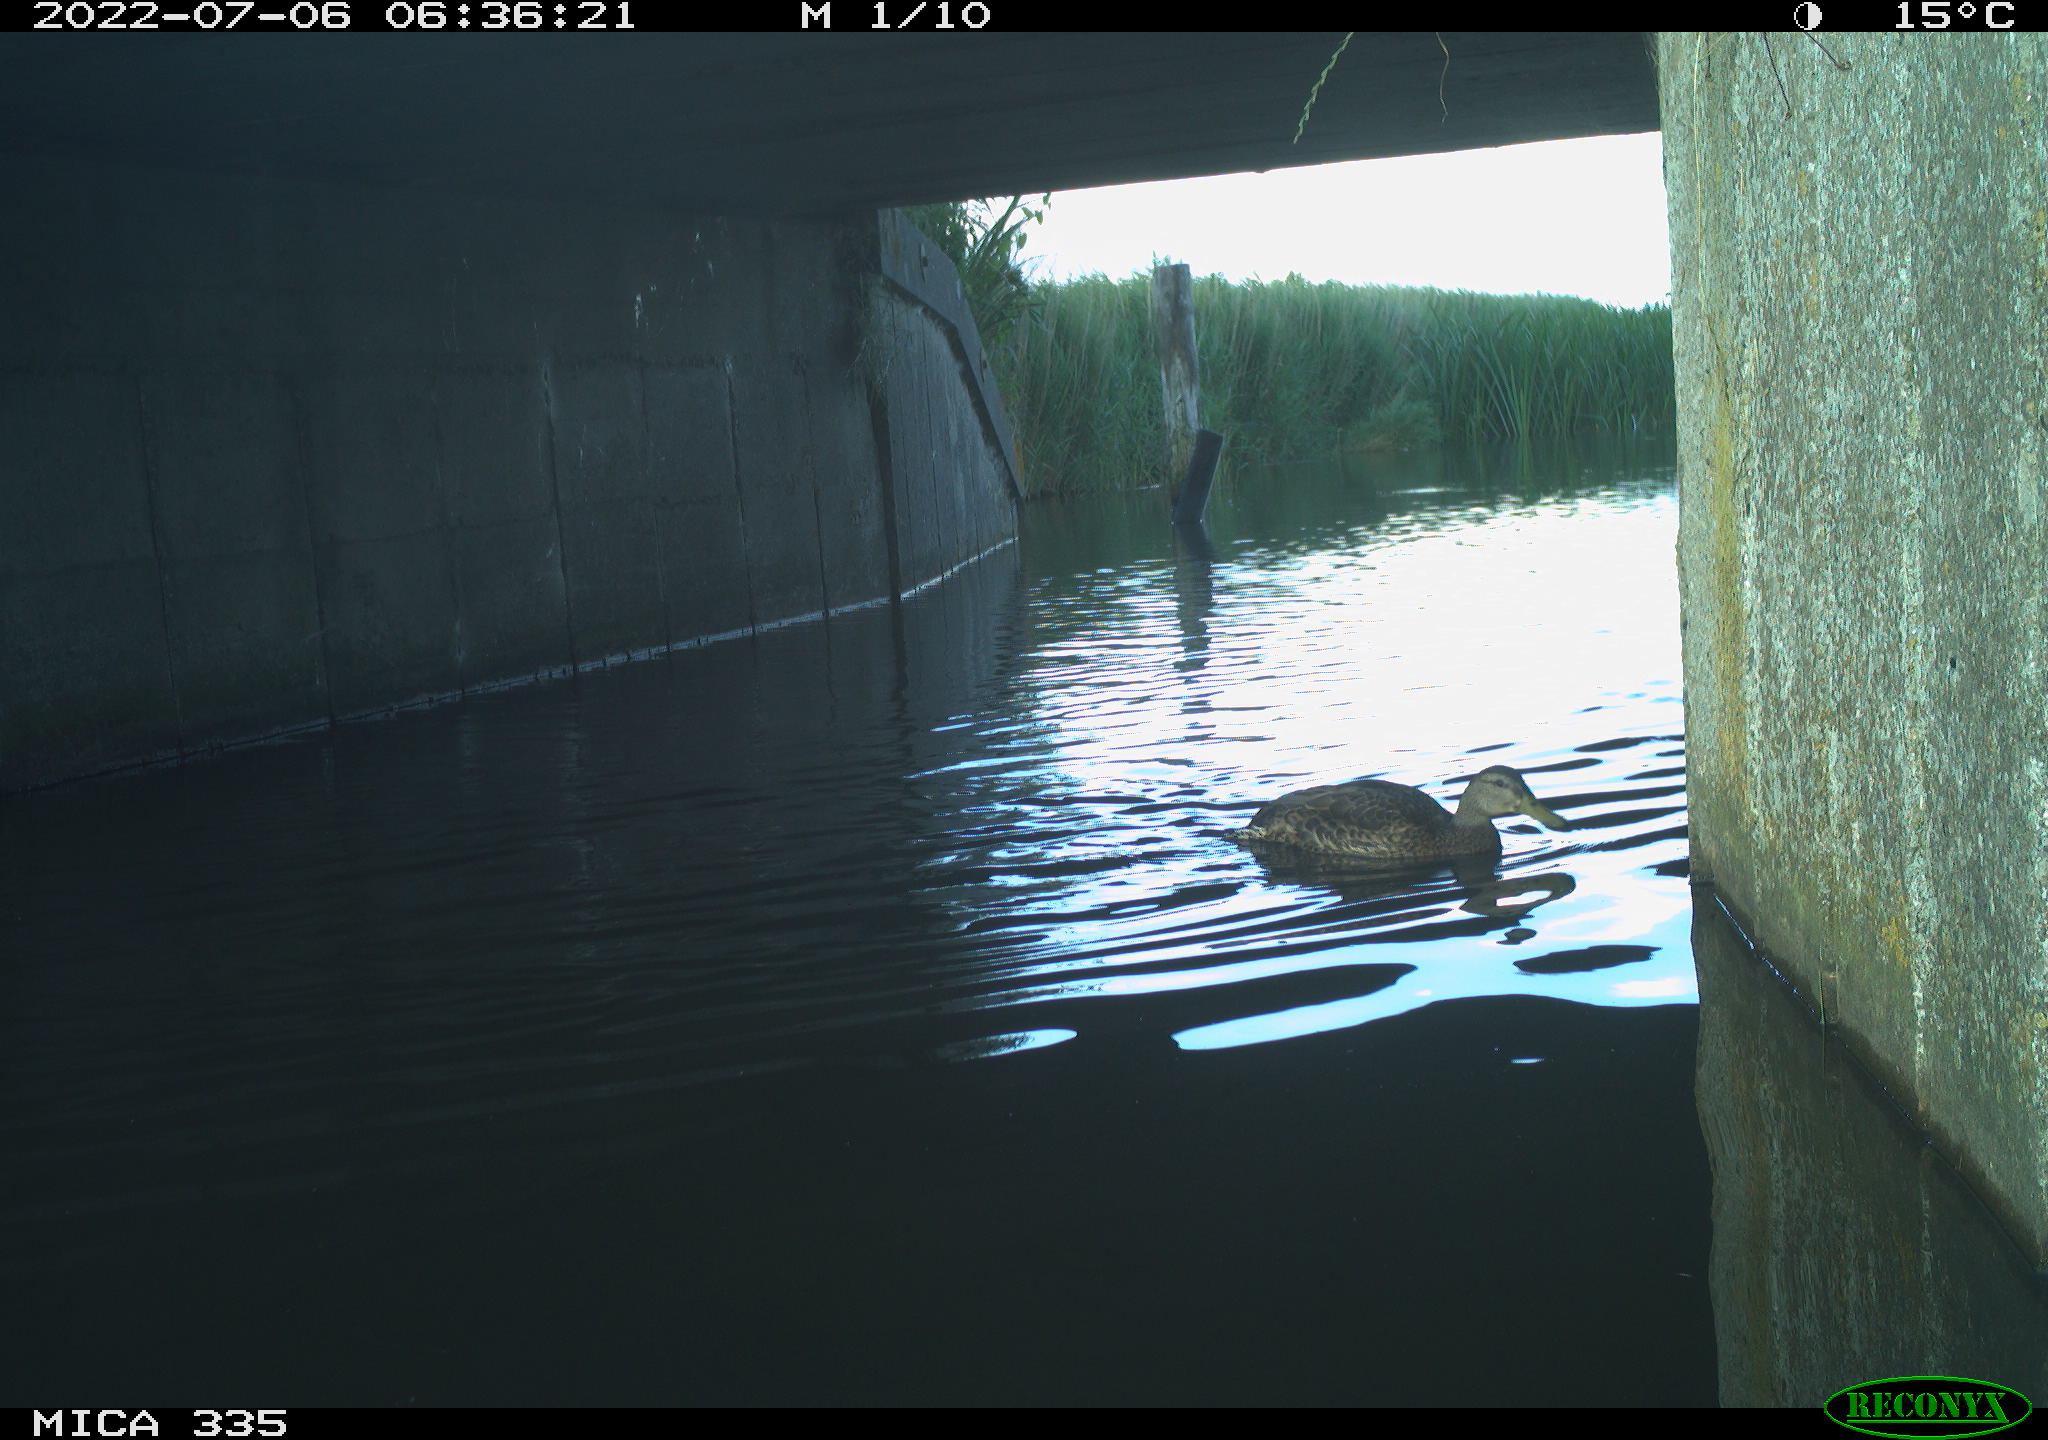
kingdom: Animalia
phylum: Chordata
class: Aves
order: Anseriformes
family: Anatidae
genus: Anas
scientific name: Anas platyrhynchos
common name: Mallard
